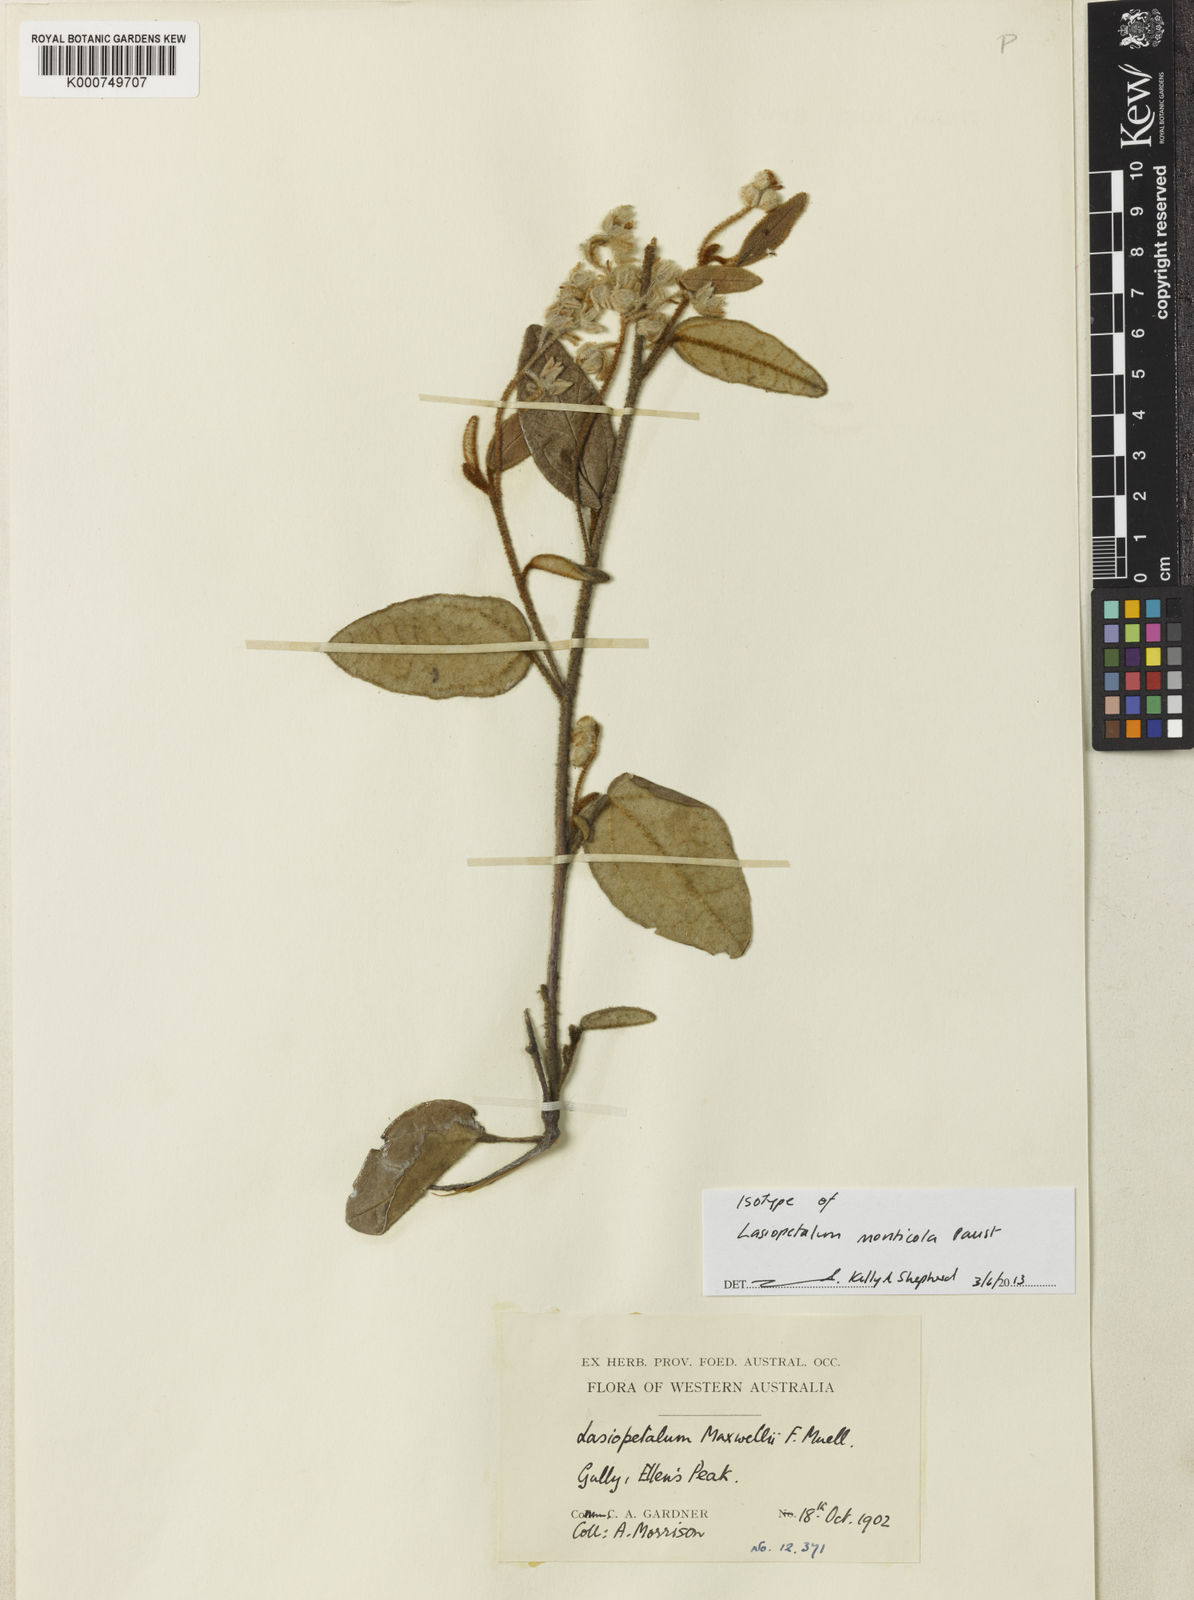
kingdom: Plantae
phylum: Tracheophyta
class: Magnoliopsida
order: Malvales
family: Malvaceae
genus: Lasiopetalum
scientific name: Lasiopetalum monticola
